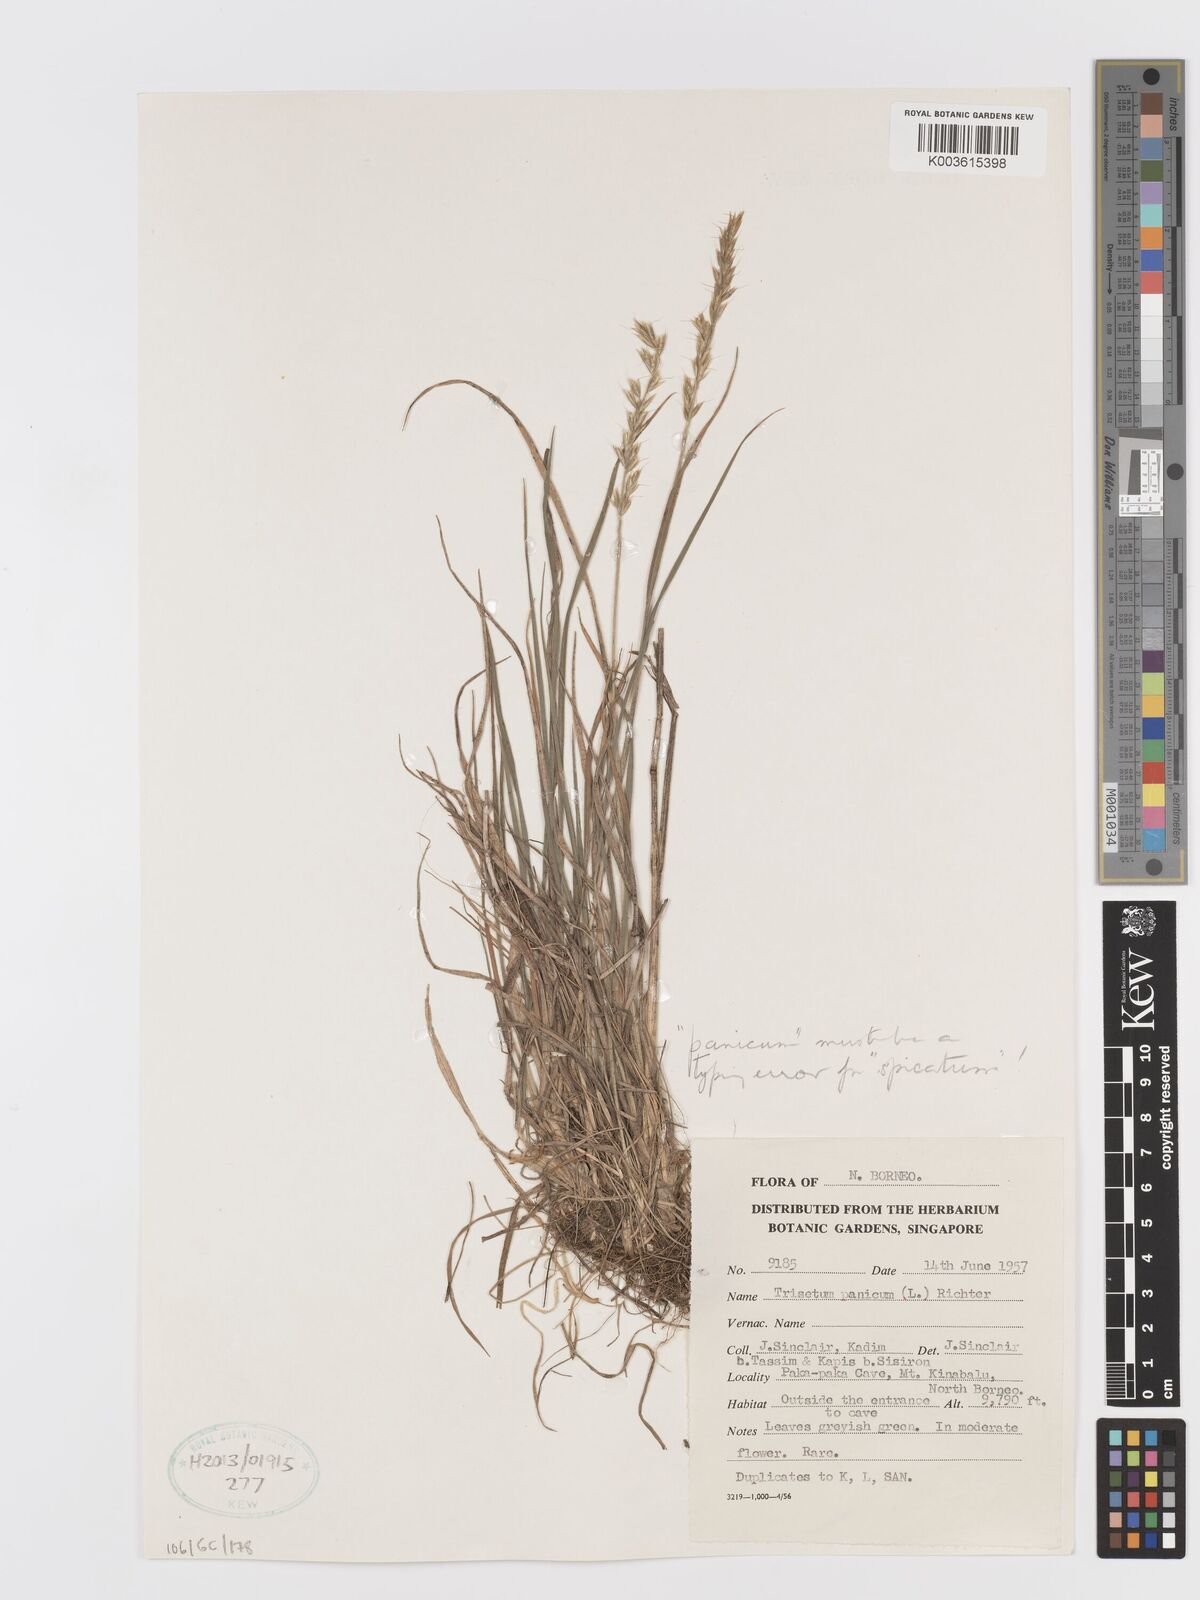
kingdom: Plantae
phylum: Tracheophyta
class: Liliopsida
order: Poales
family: Poaceae
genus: Koeleria
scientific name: Koeleria spicata
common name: Mountain trisetum
